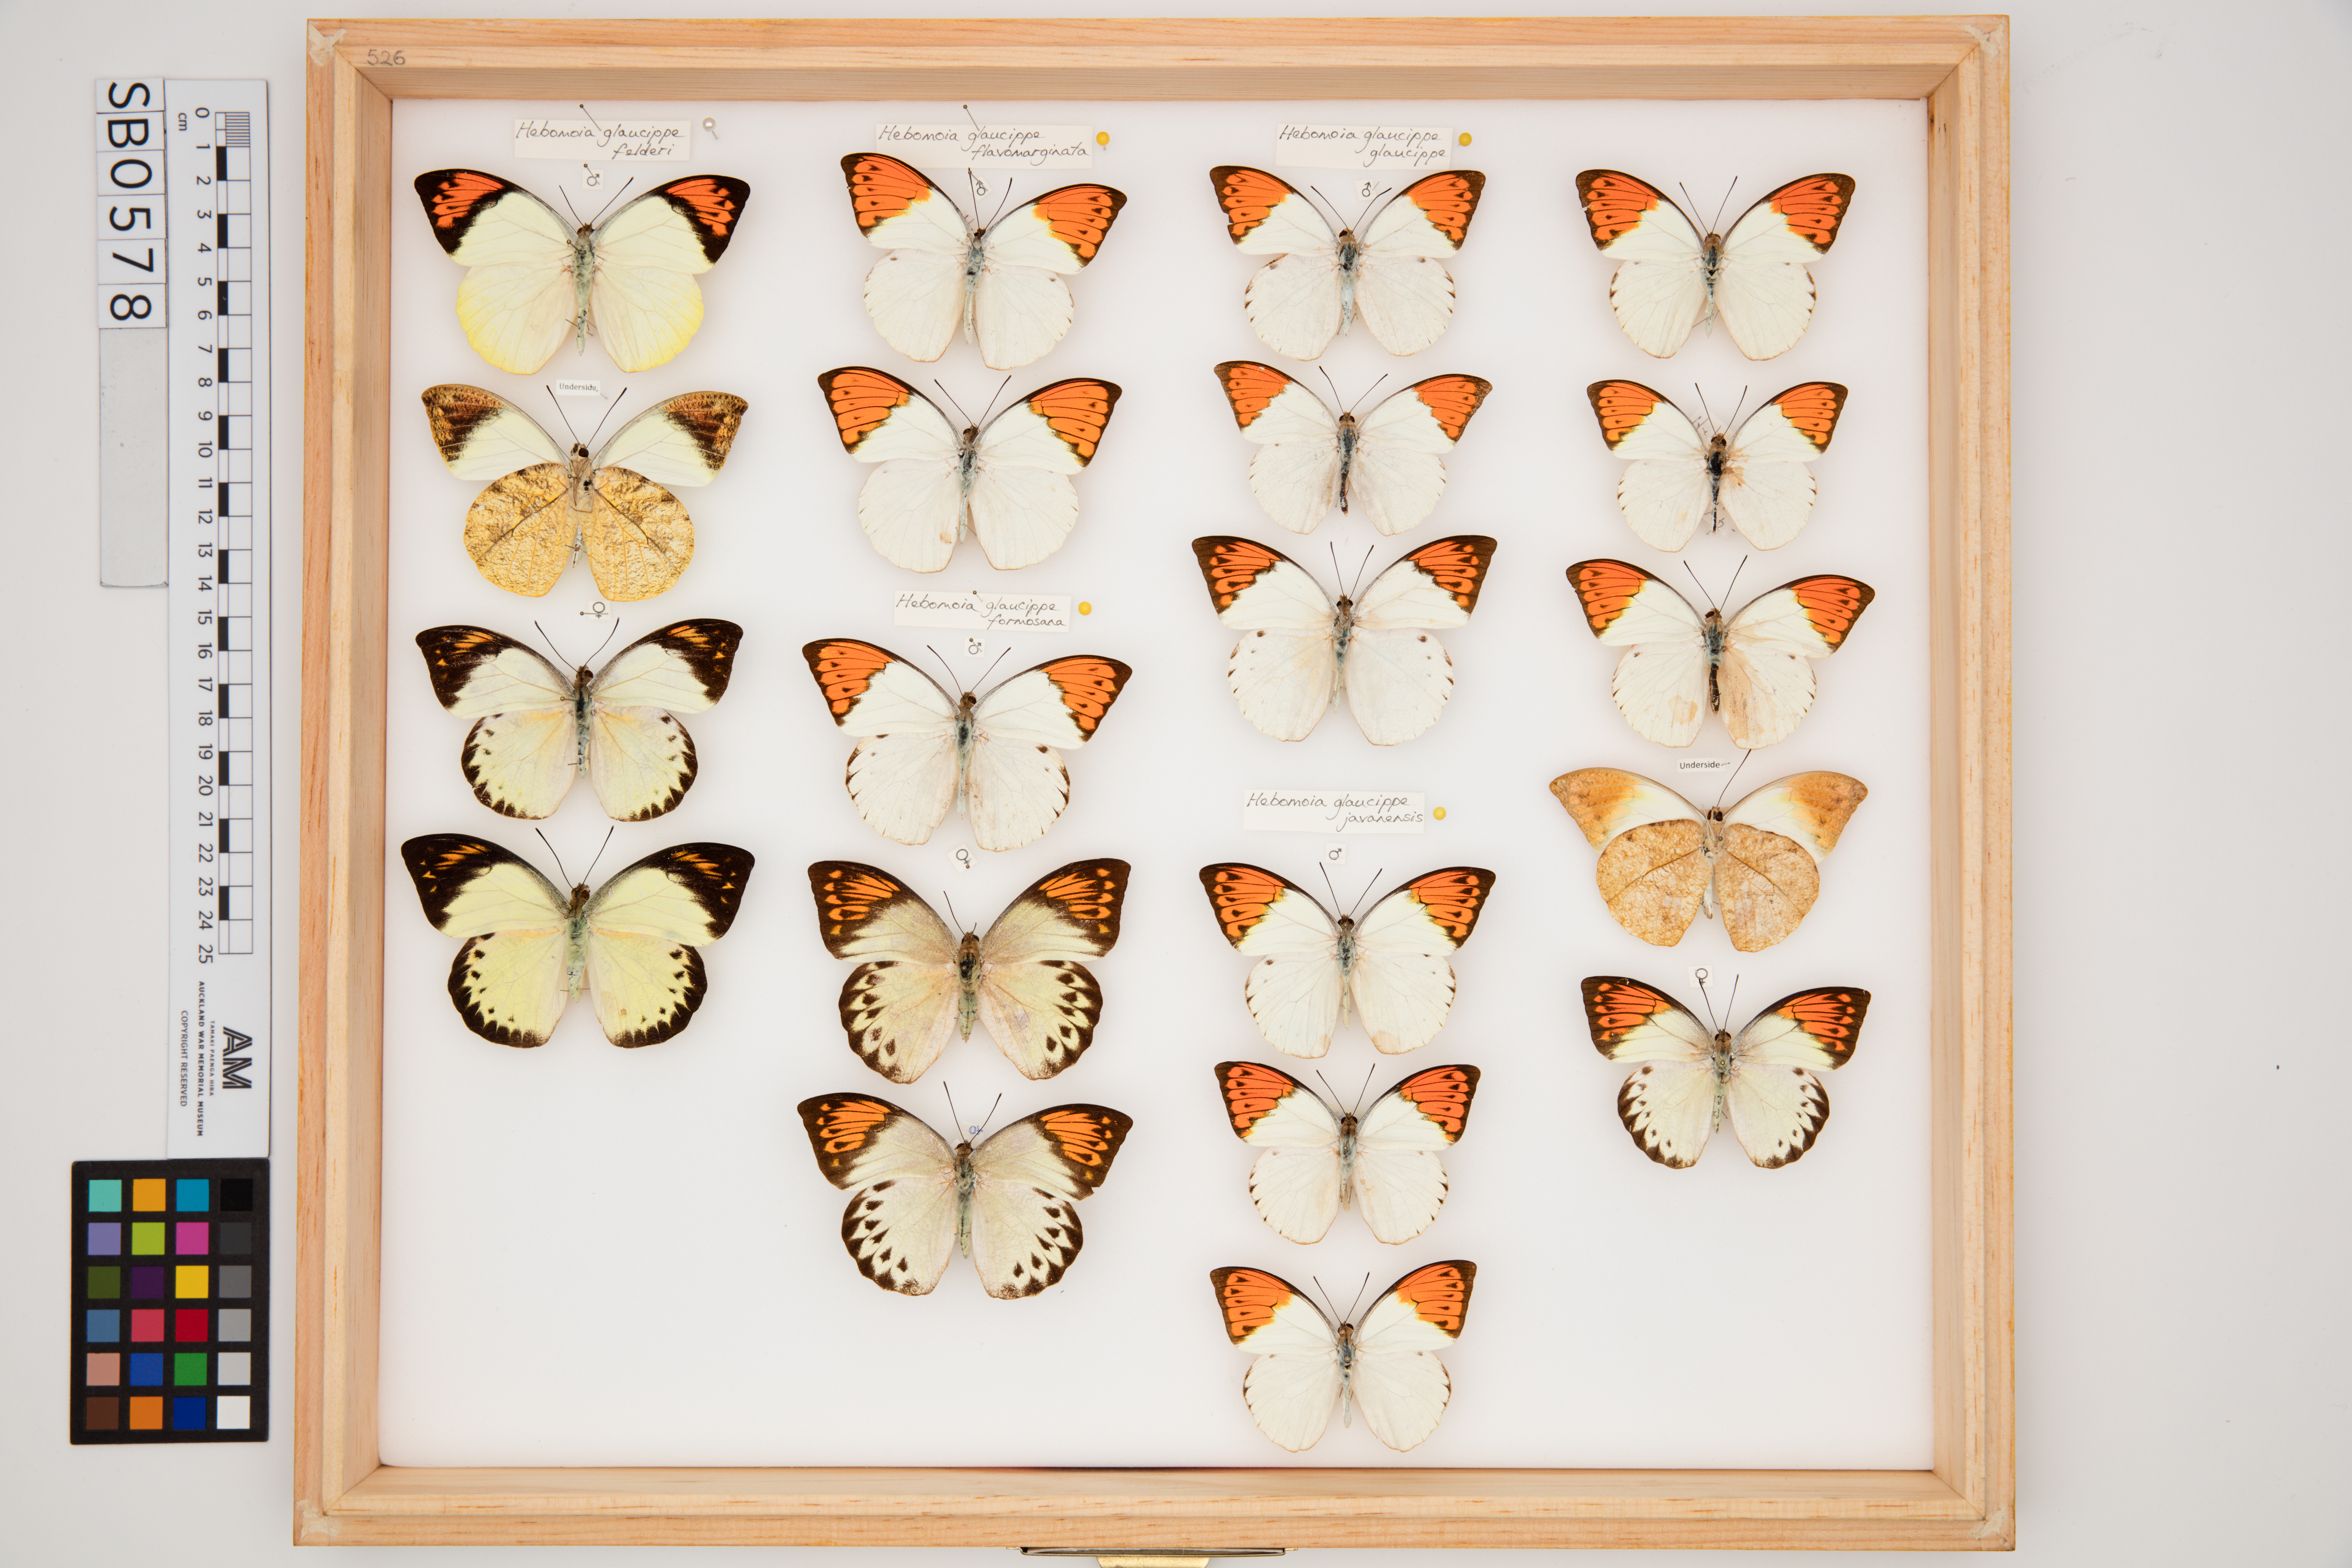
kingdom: Animalia
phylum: Arthropoda
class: Insecta
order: Lepidoptera
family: Pieridae
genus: Hebomoia
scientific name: Hebomoia glaucippe
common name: Great orange tip
